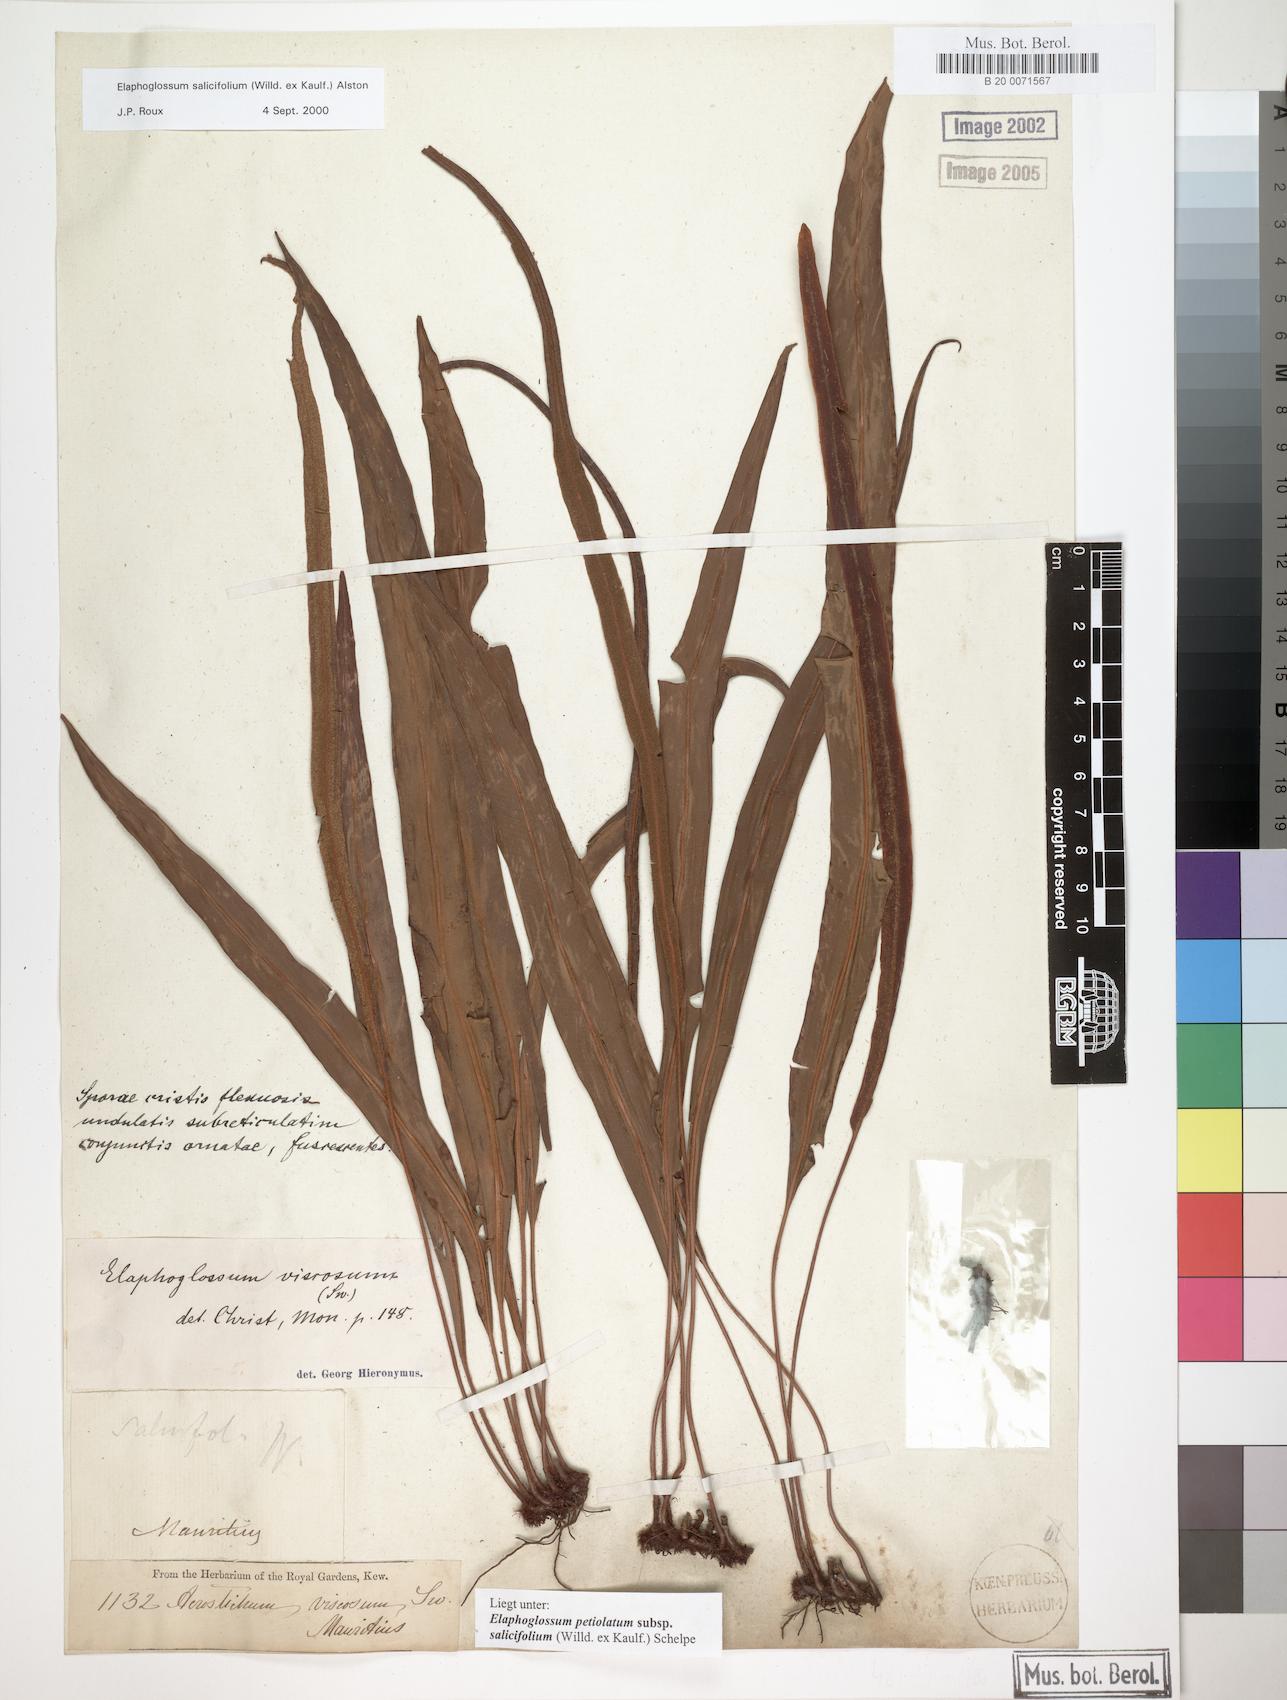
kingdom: Plantae
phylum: Tracheophyta
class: Polypodiopsida
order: Polypodiales
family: Dryopteridaceae
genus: Elaphoglossum
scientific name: Elaphoglossum lancifolium
